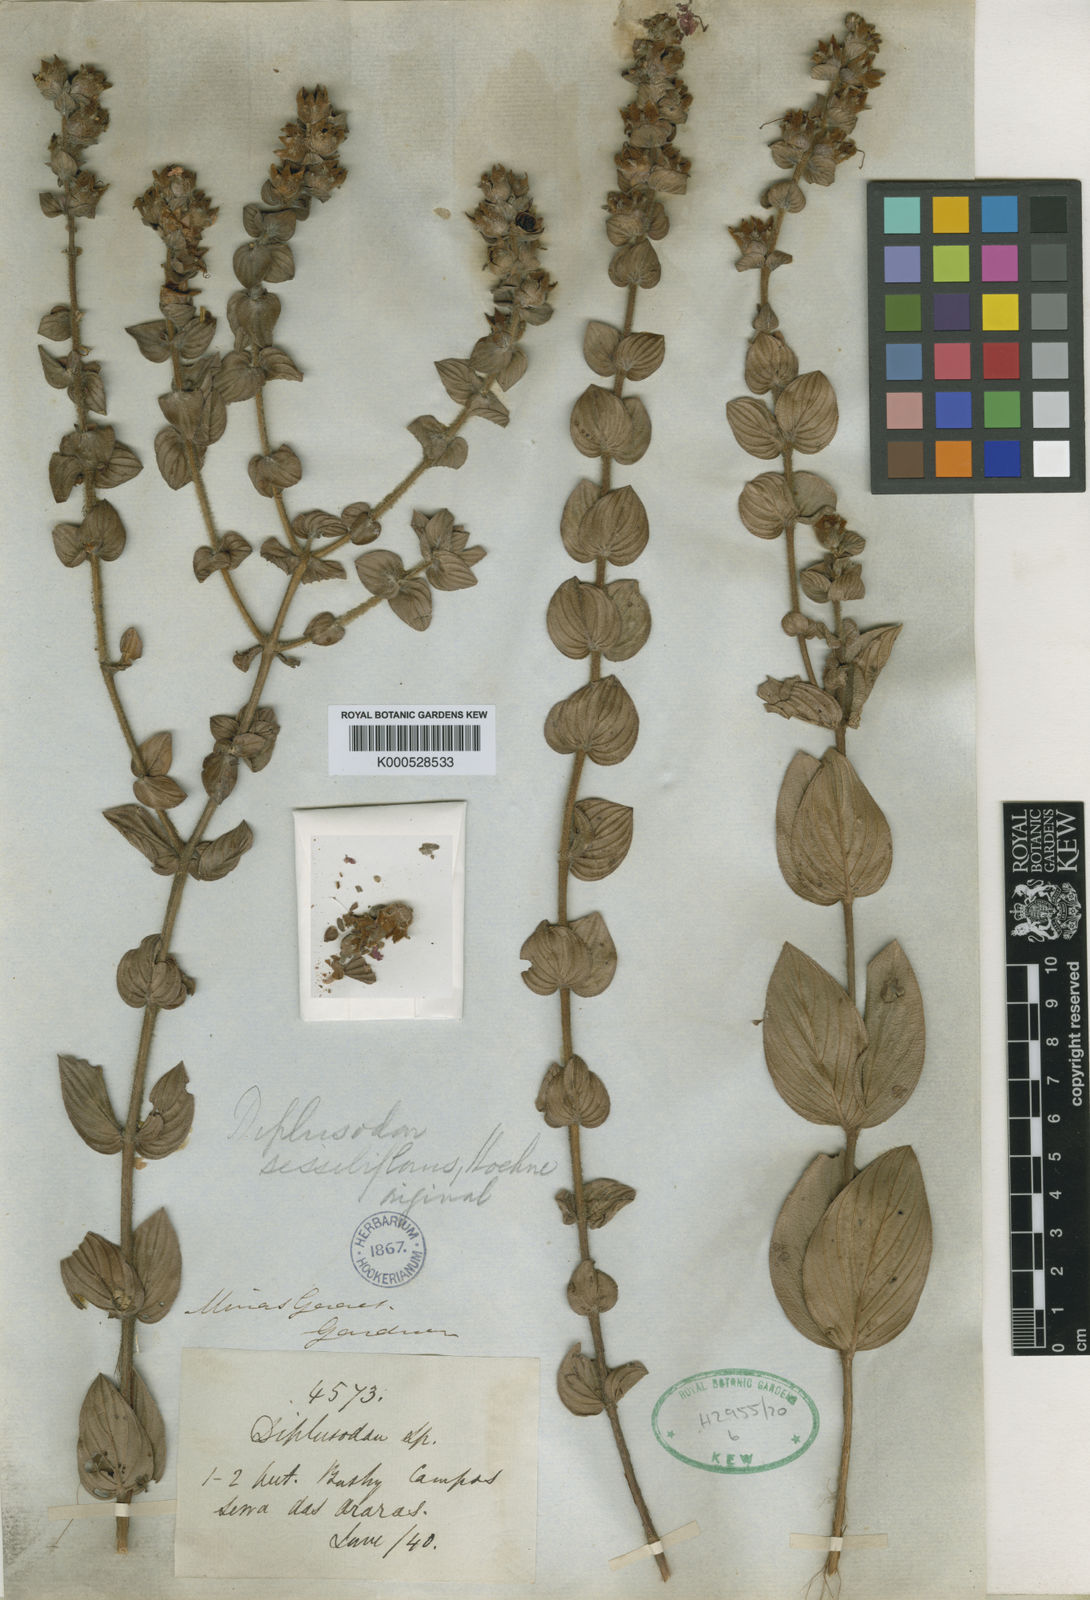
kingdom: Plantae
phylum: Tracheophyta
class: Magnoliopsida
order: Myrtales
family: Lythraceae
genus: Diplusodon
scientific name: Diplusodon sessiliflorus
